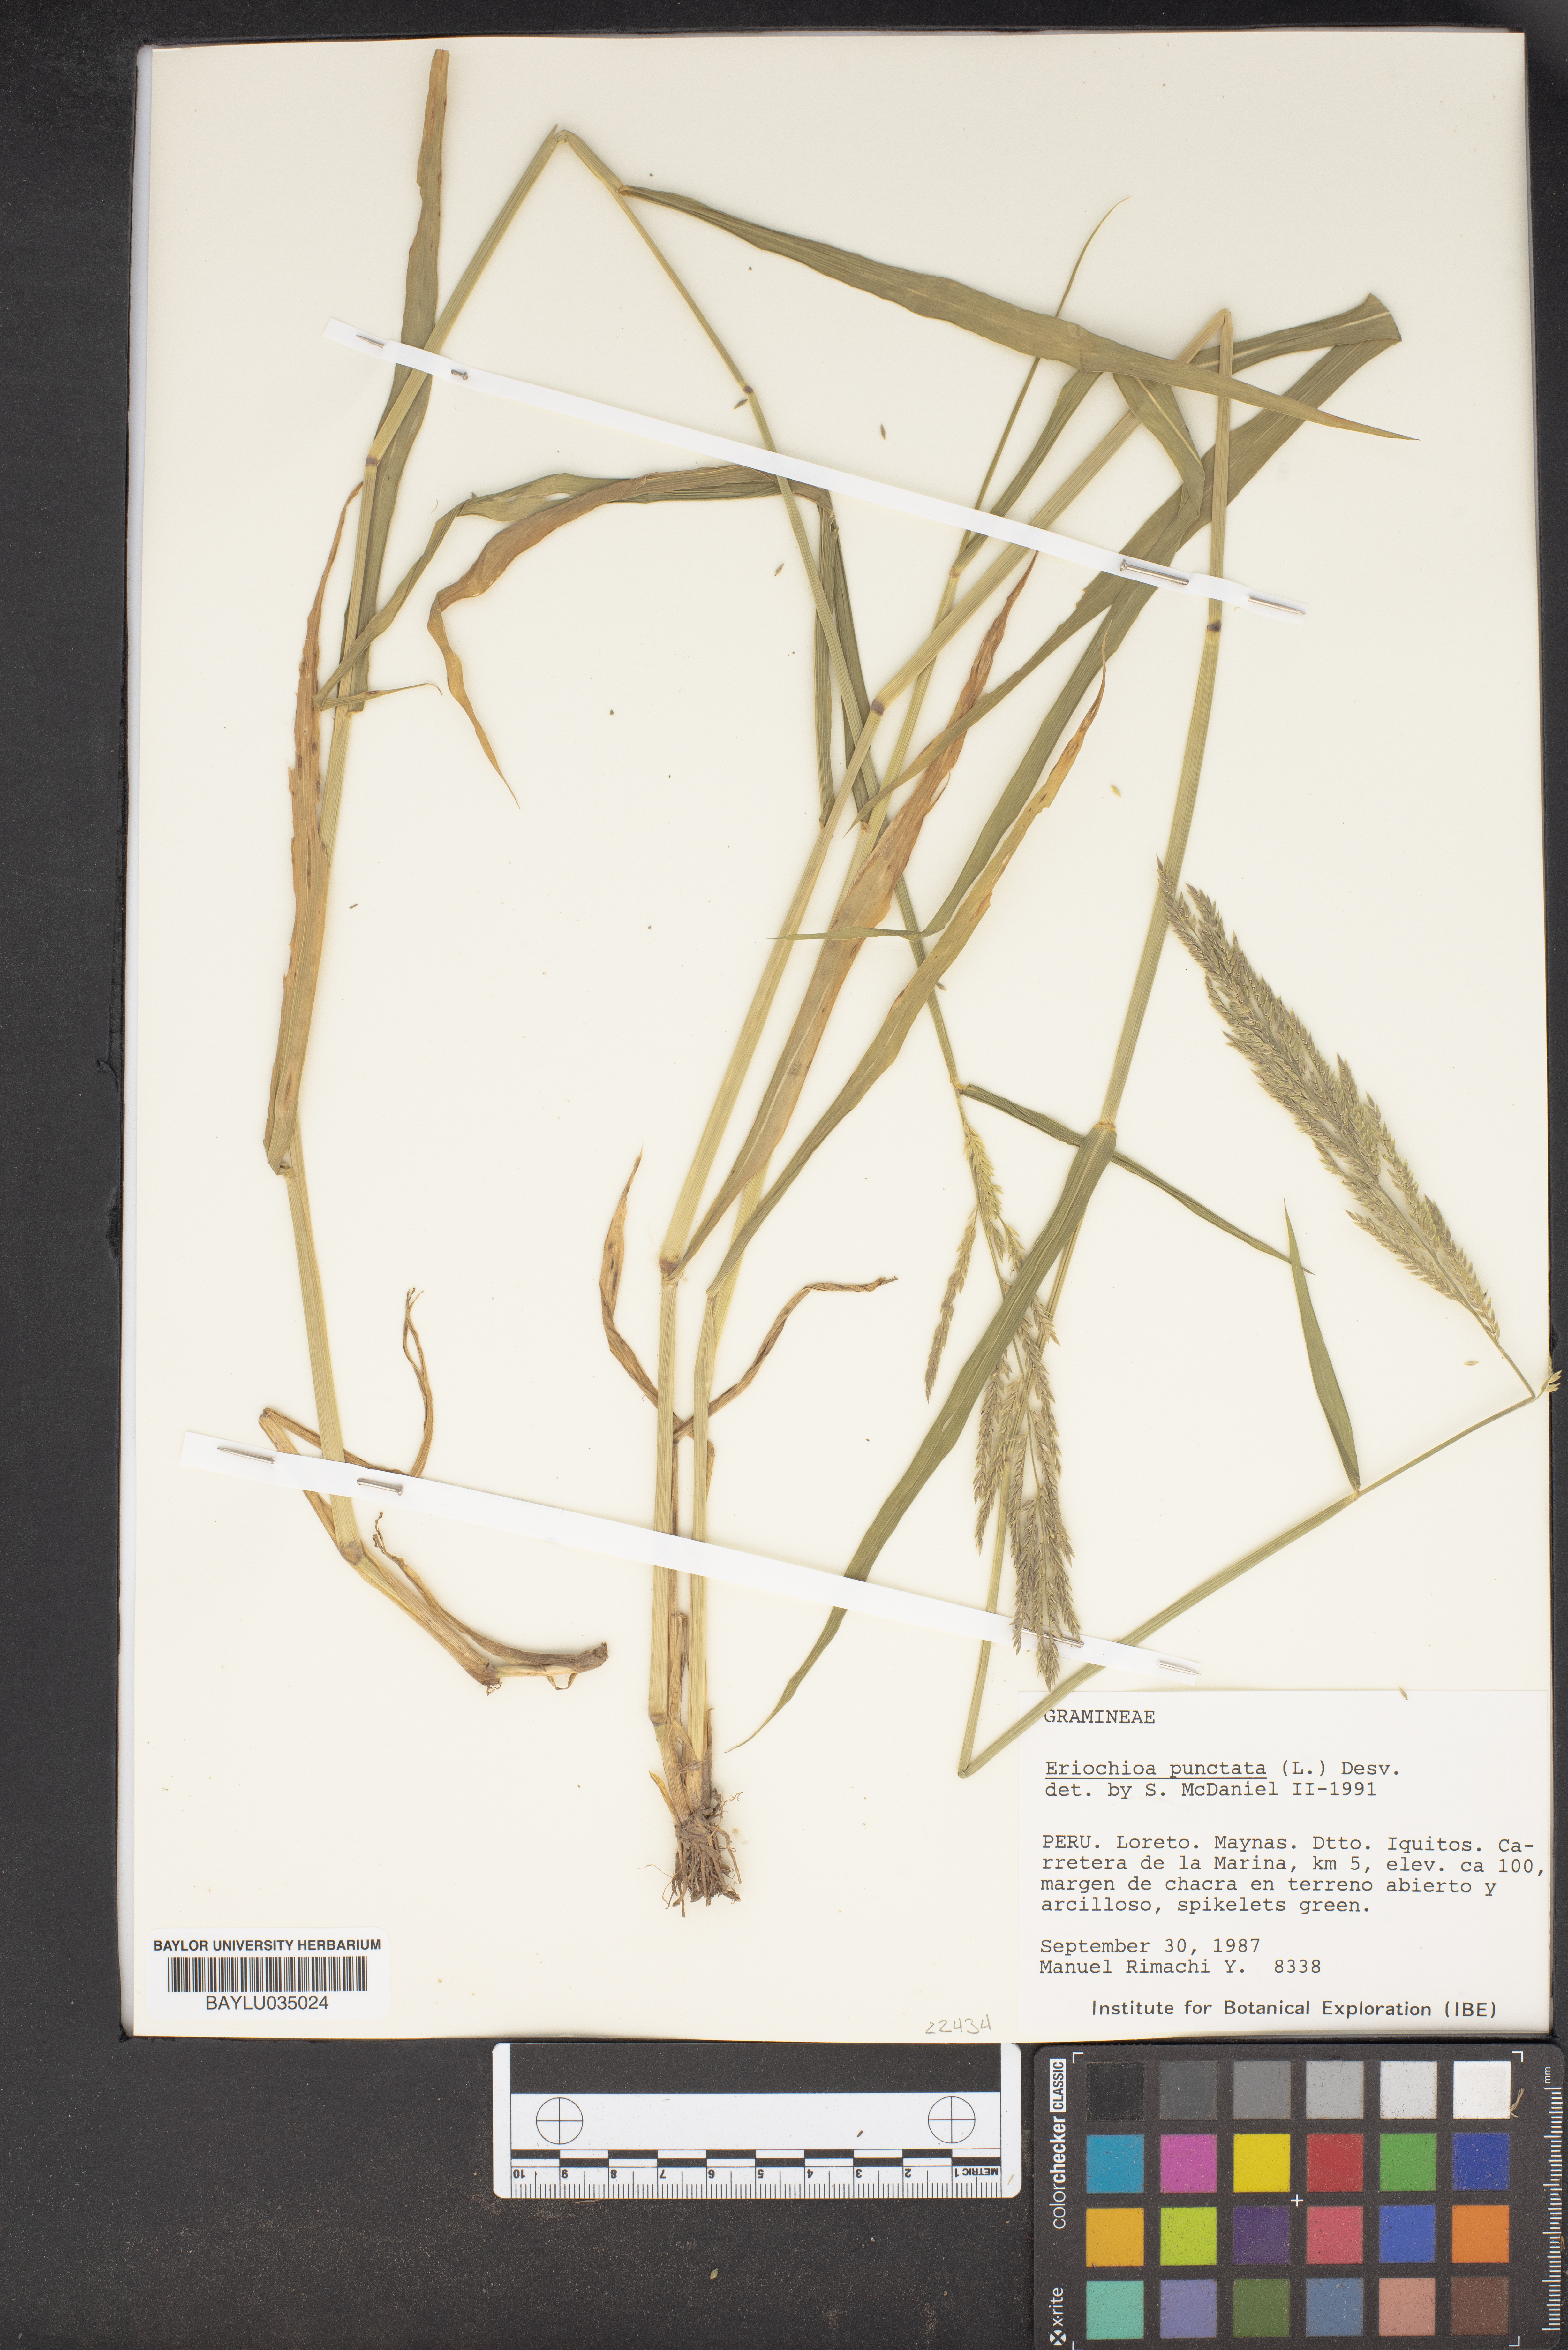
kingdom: Plantae
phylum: Tracheophyta
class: Liliopsida
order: Poales
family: Poaceae
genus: Urochloa
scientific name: Urochloa polystachya
